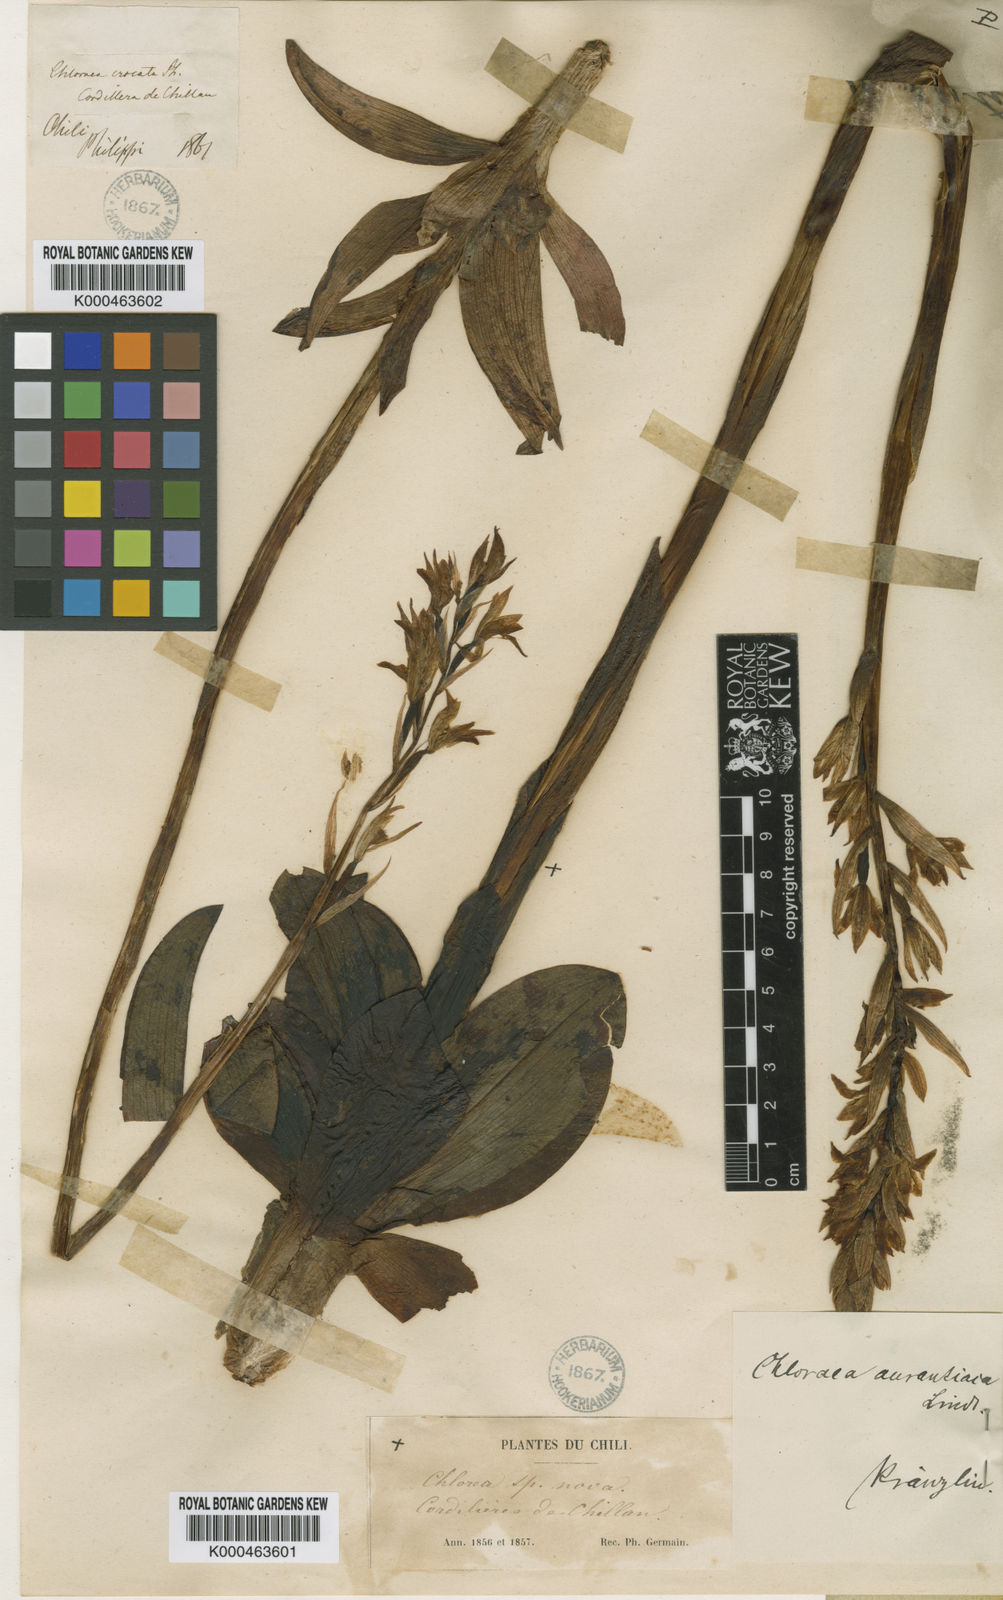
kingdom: Plantae
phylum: Tracheophyta
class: Liliopsida
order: Asparagales
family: Orchidaceae
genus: Chloraea
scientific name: Chloraea chrysantha
